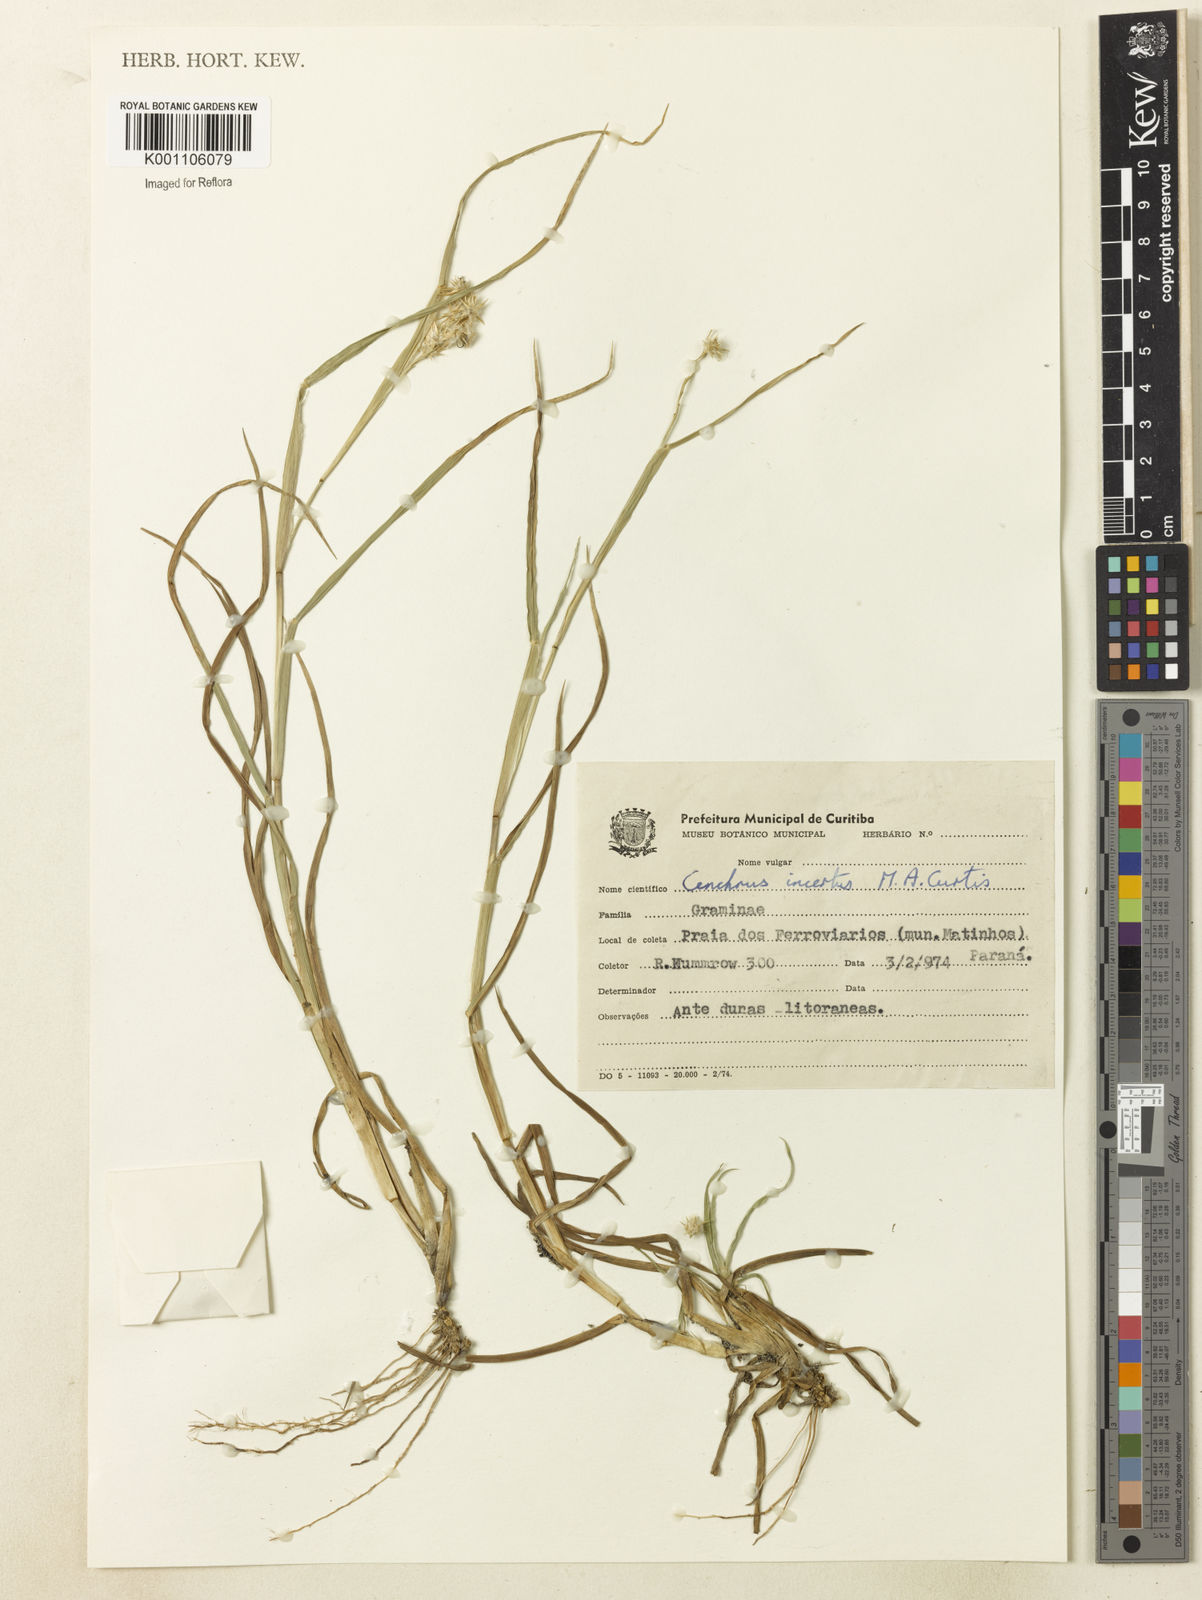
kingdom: Plantae
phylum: Tracheophyta
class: Liliopsida
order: Poales
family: Poaceae
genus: Cenchrus
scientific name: Cenchrus tribuloides
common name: Dune sandbur
